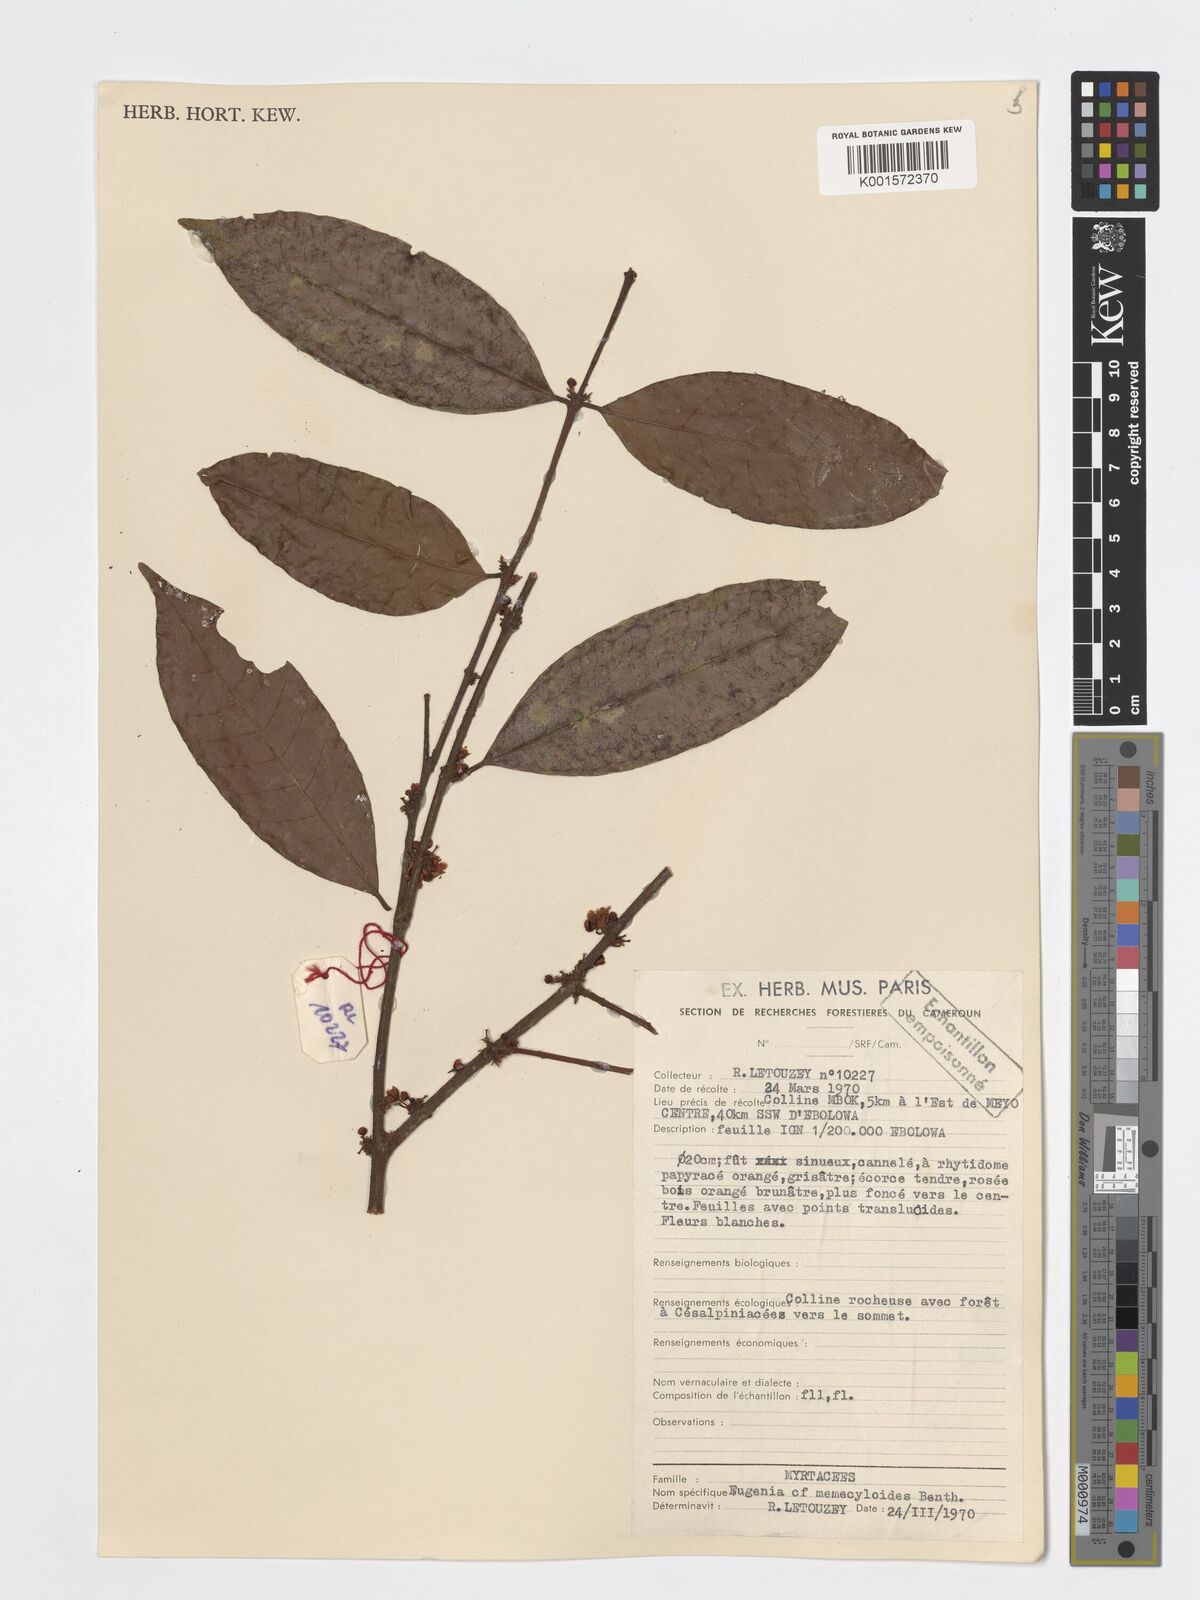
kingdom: Plantae
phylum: Tracheophyta
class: Magnoliopsida
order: Myrtales
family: Myrtaceae
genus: Eugenia
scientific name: Eugenia memecyloides
